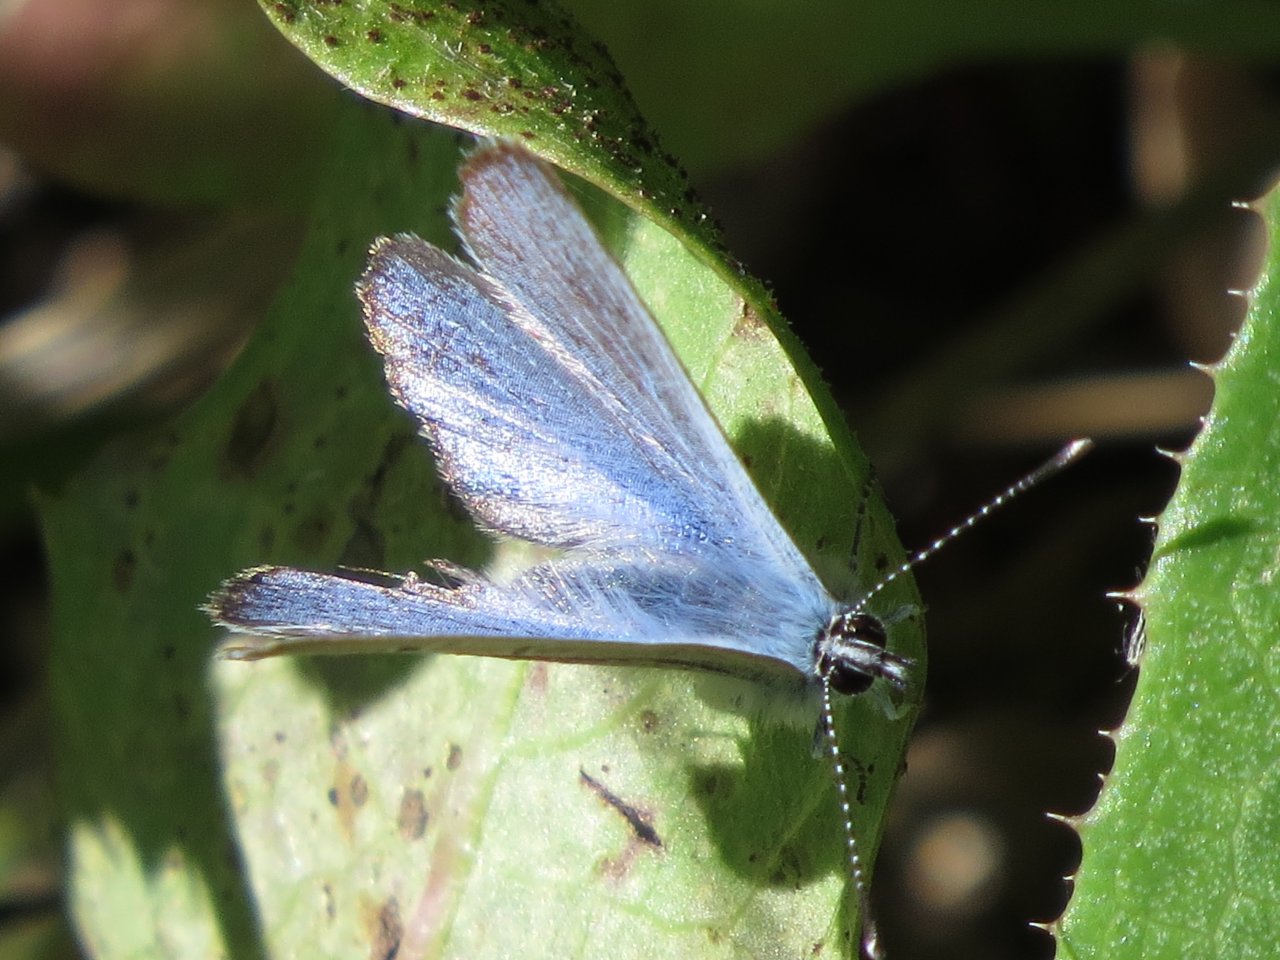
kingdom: Animalia
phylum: Arthropoda
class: Insecta
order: Lepidoptera
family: Lycaenidae
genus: Plebejus
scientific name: Plebejus saepiolus
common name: Greenish Blue
